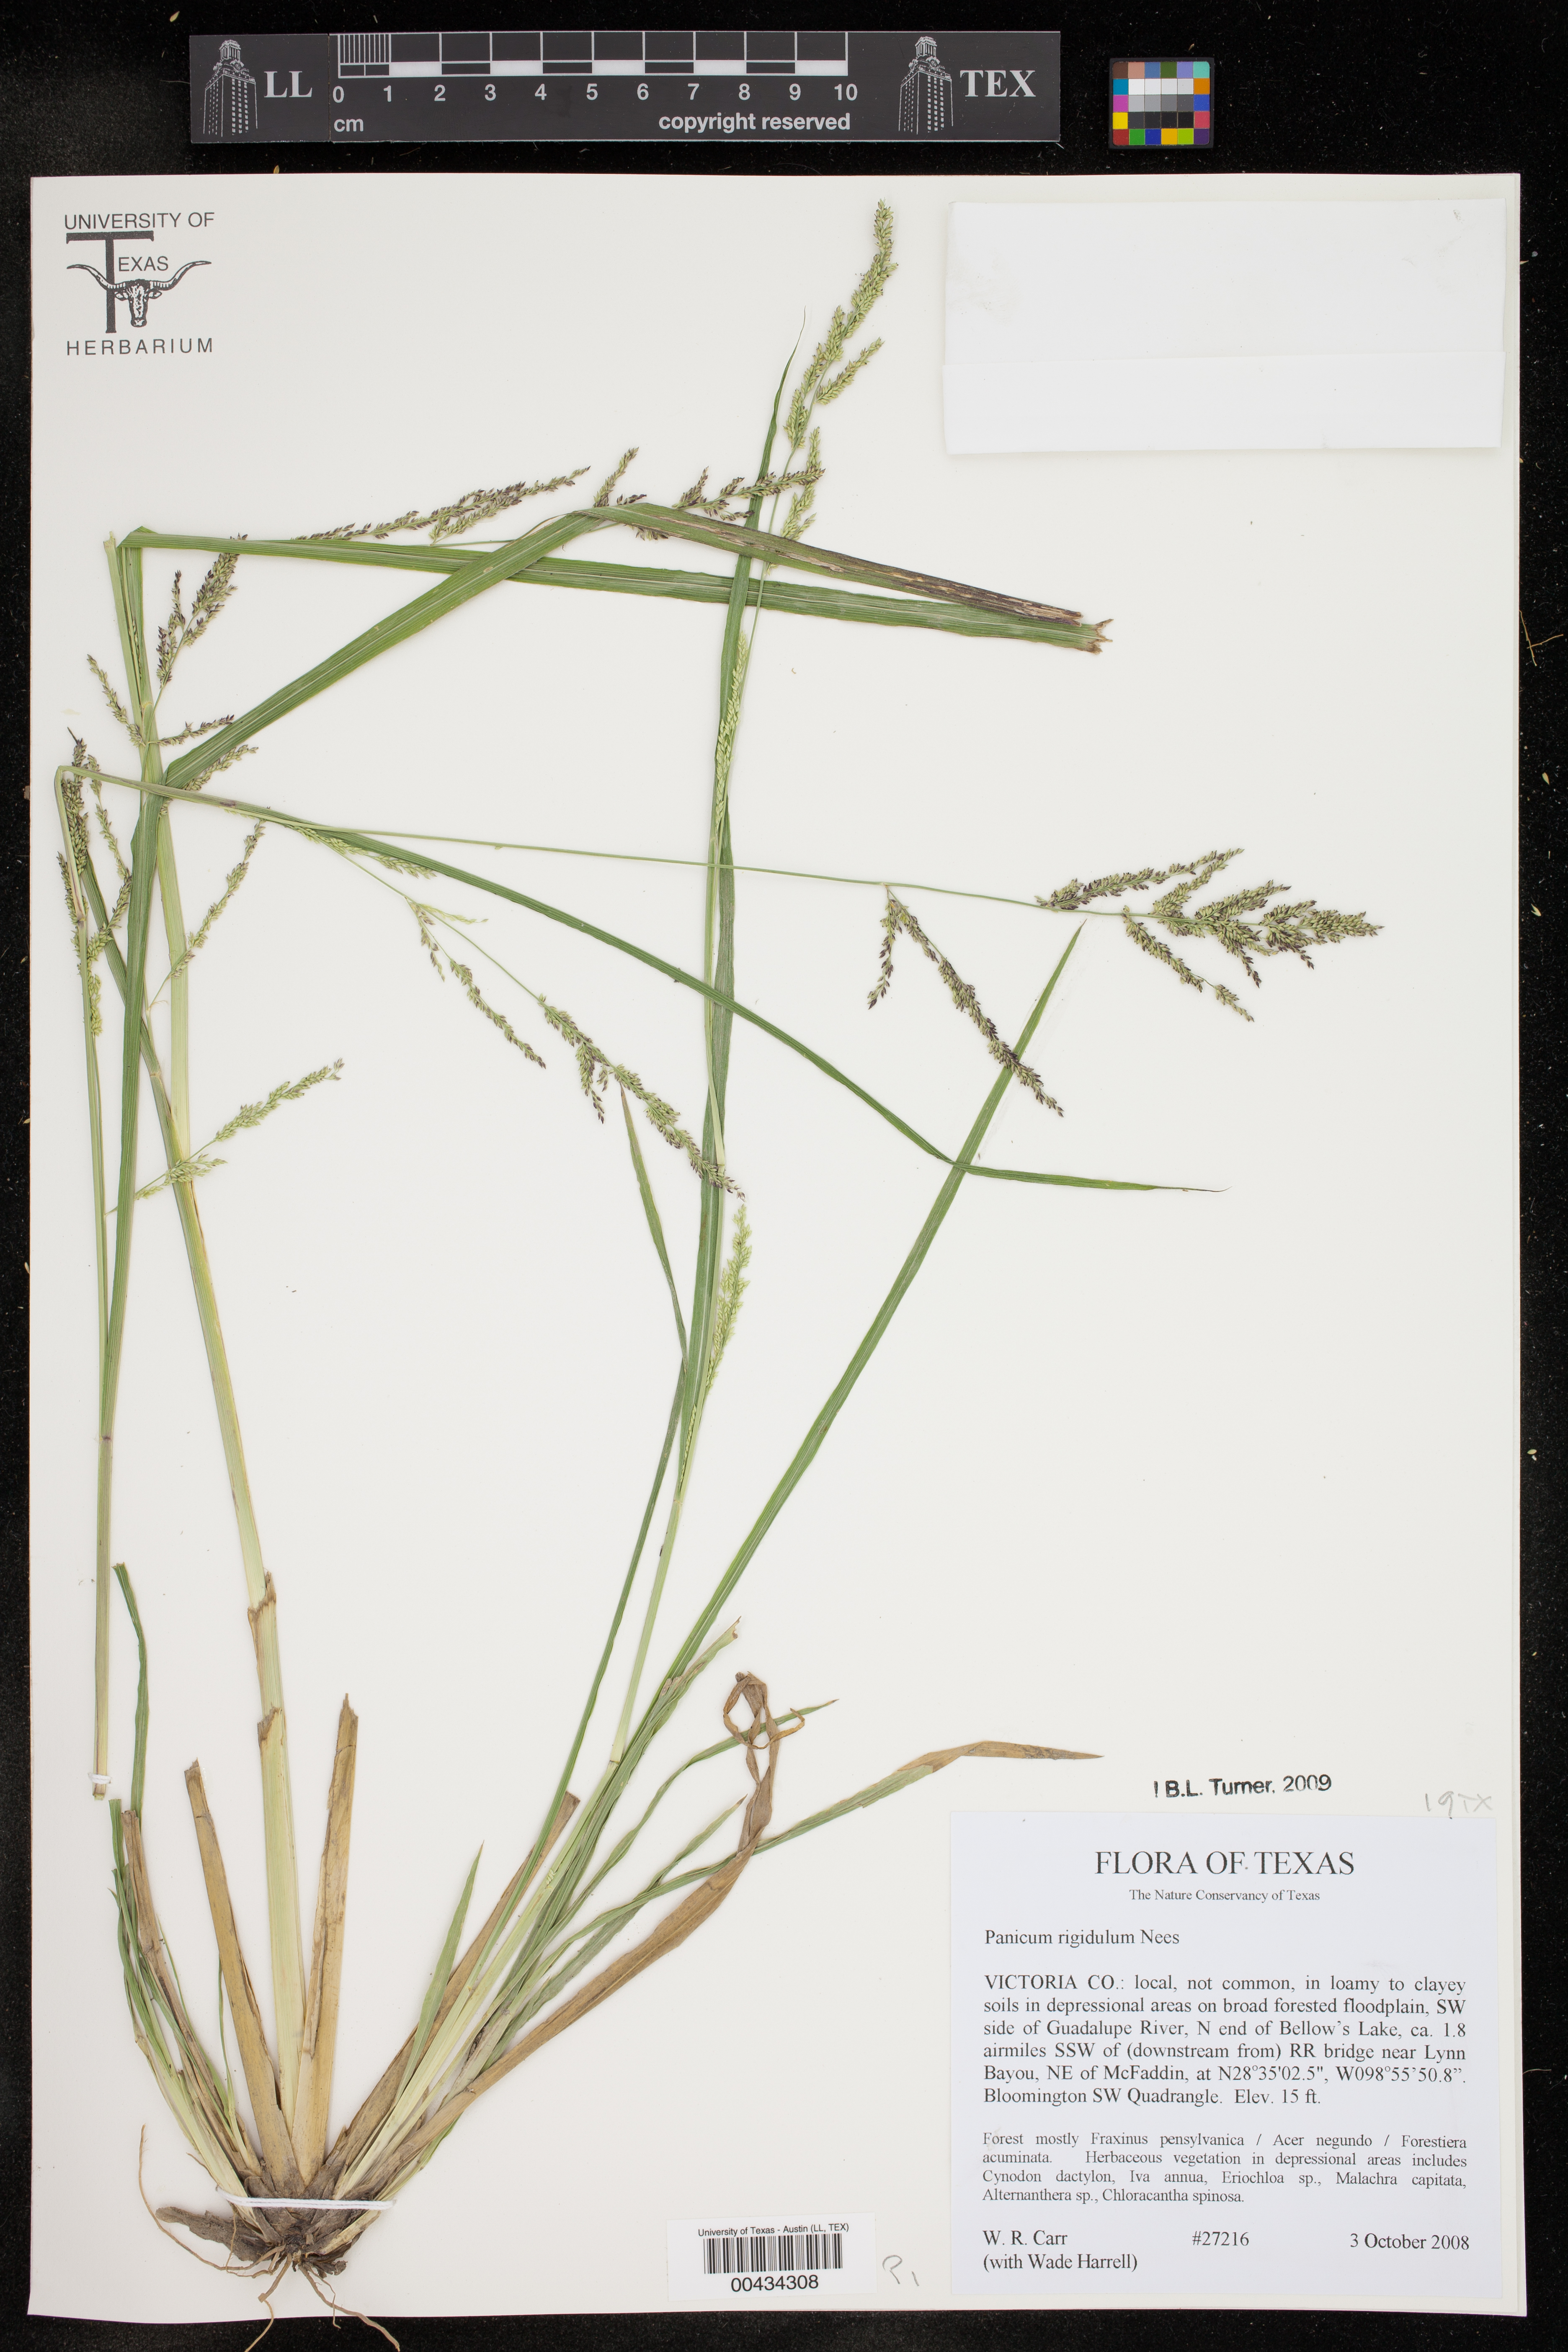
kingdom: Plantae
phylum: Tracheophyta
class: Liliopsida
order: Poales
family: Poaceae
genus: Coleataenia
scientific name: Coleataenia rigidula
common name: Redtop panicgrass
